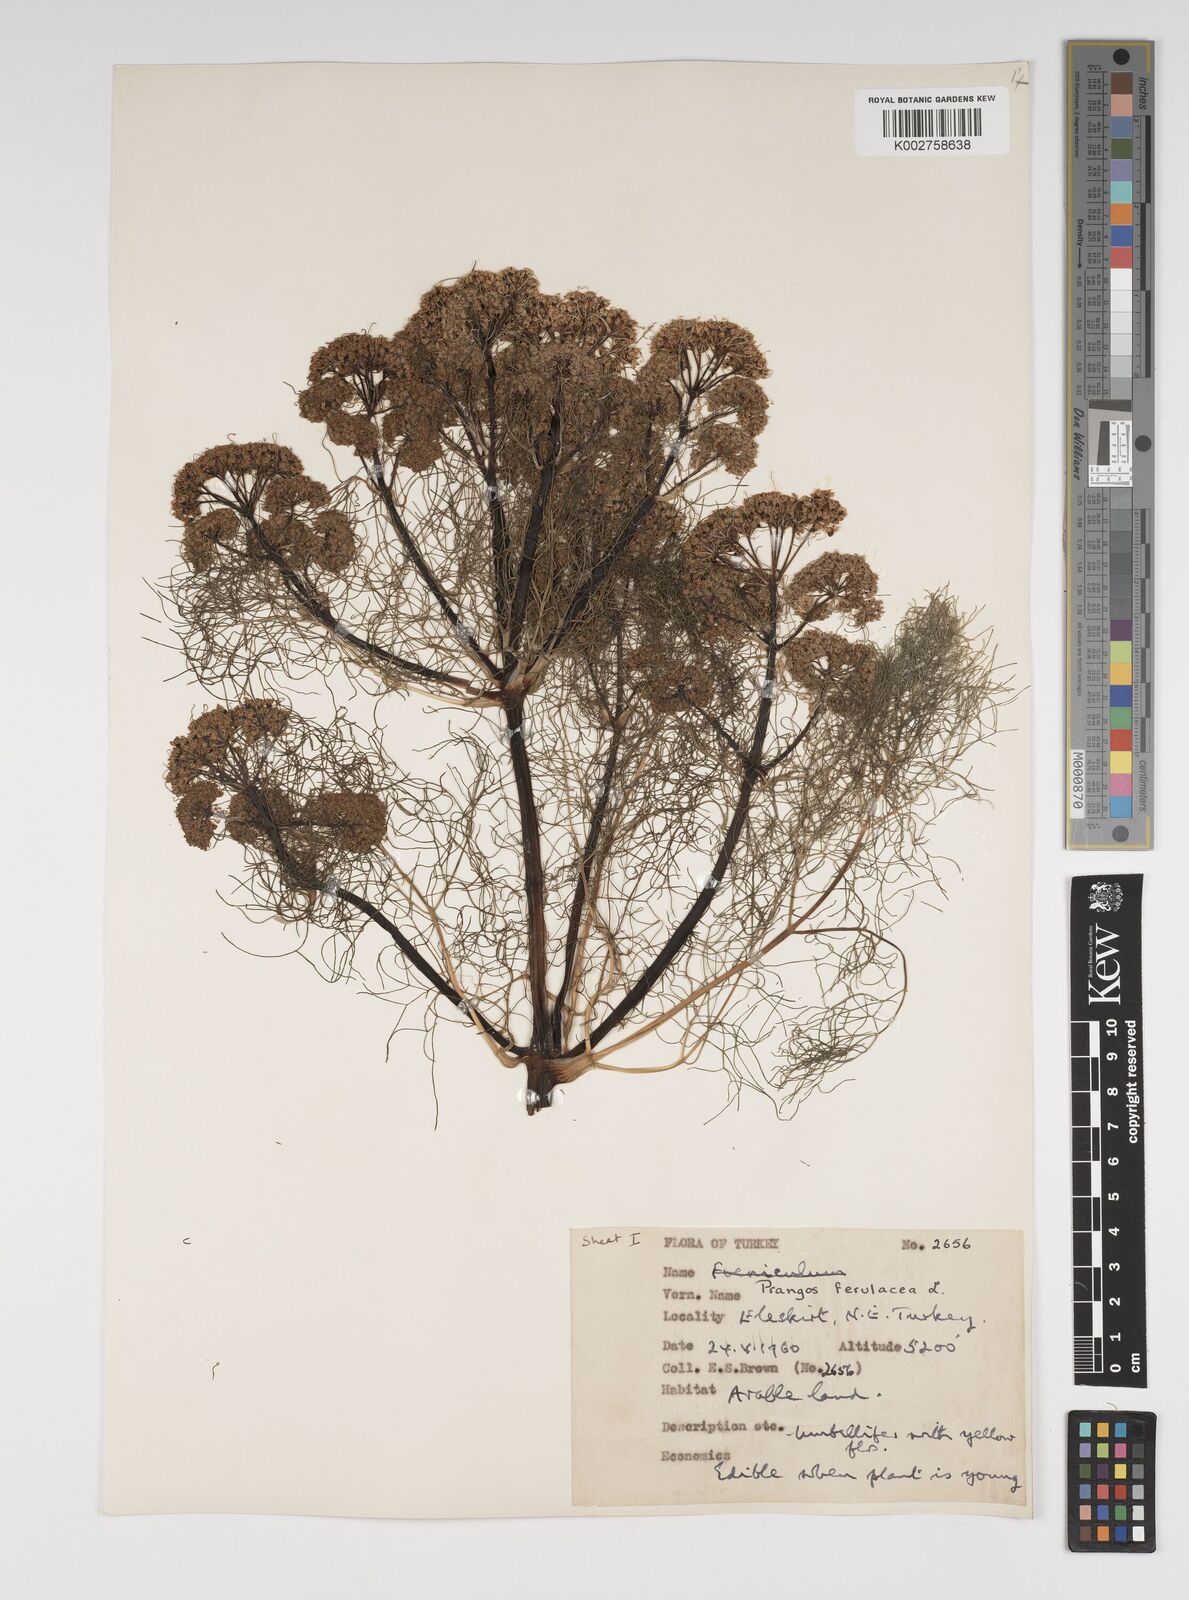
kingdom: Plantae
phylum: Tracheophyta
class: Magnoliopsida
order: Apiales
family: Apiaceae
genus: Prangos
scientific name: Prangos ferulacea
